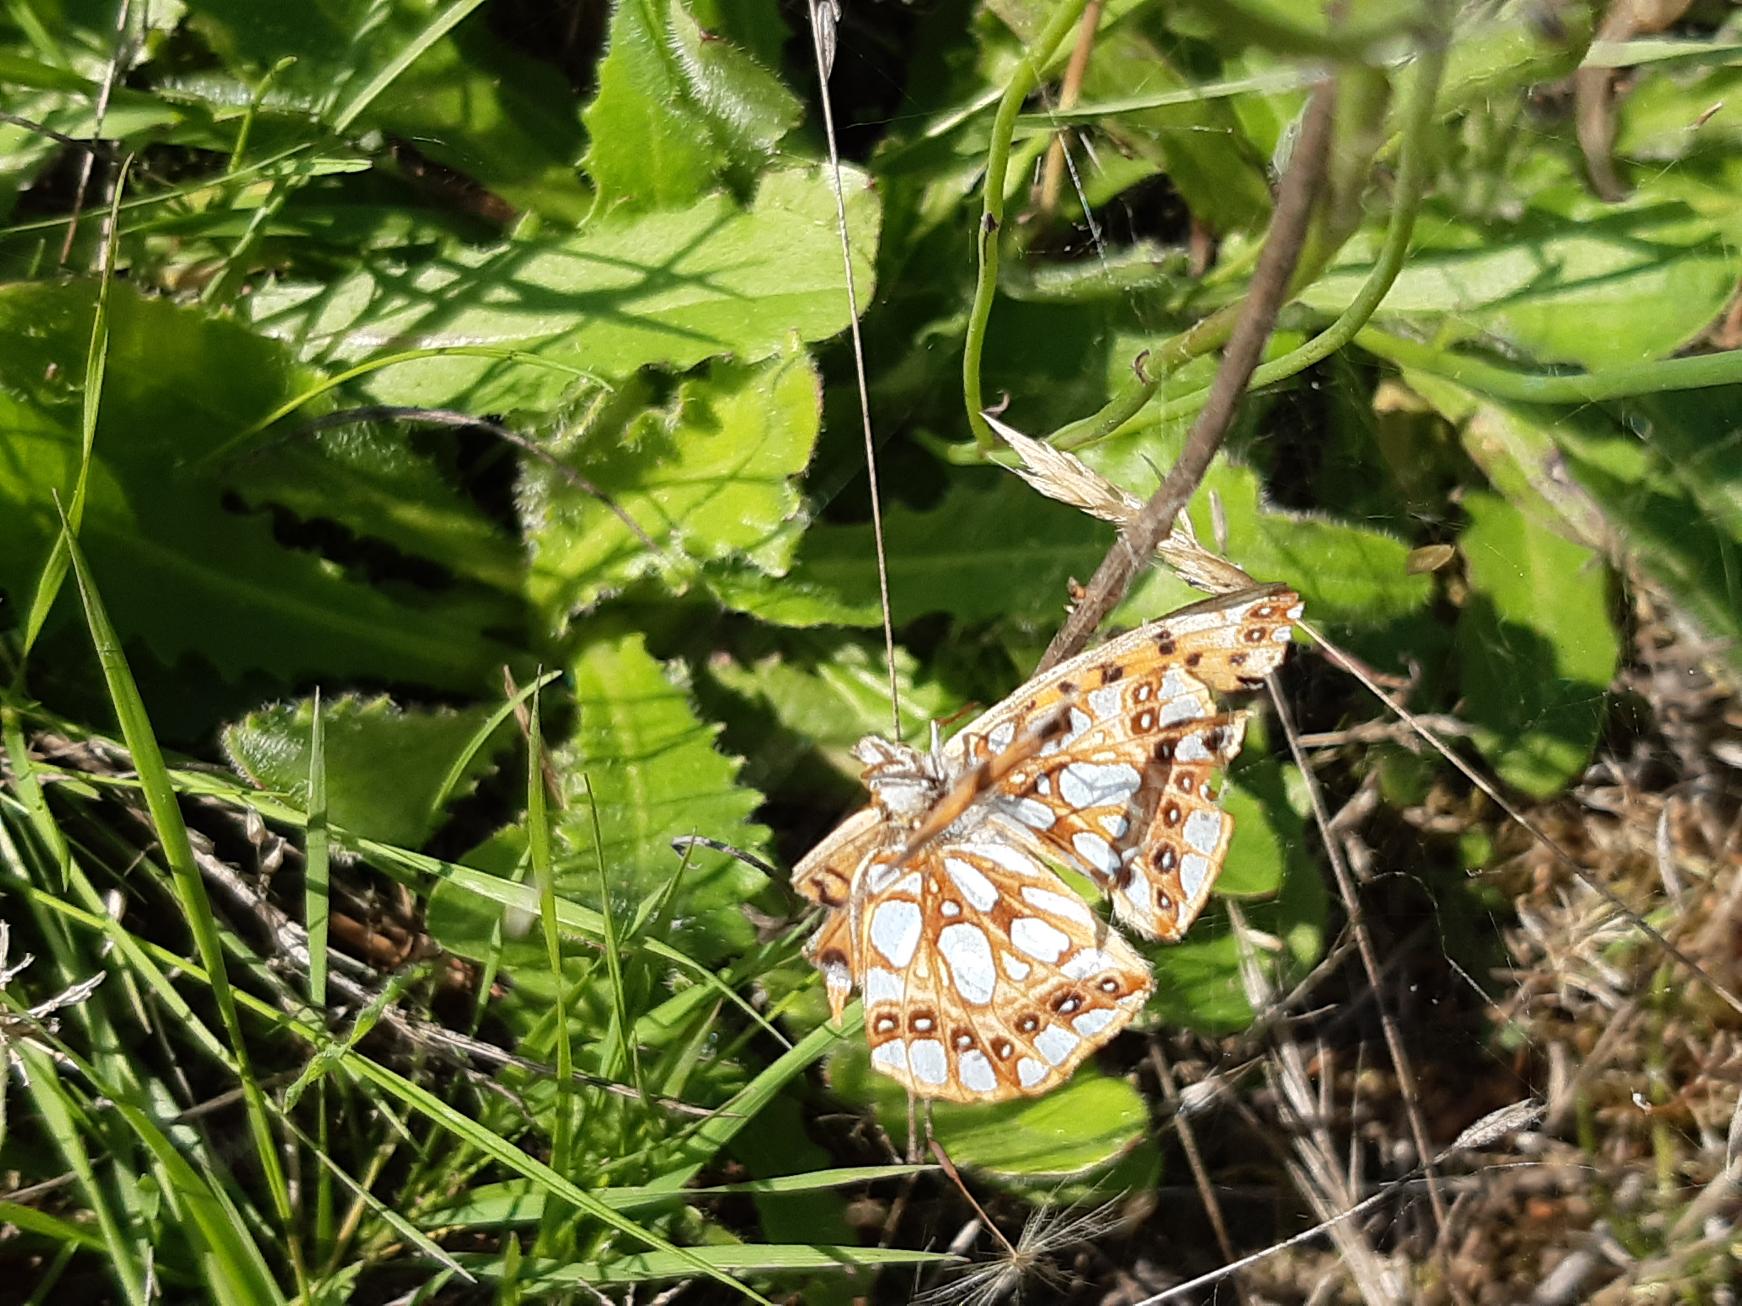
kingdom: Animalia
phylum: Arthropoda
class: Insecta
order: Lepidoptera
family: Nymphalidae
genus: Issoria
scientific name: Issoria lathonia
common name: Storplettet perlemorsommerfugl
